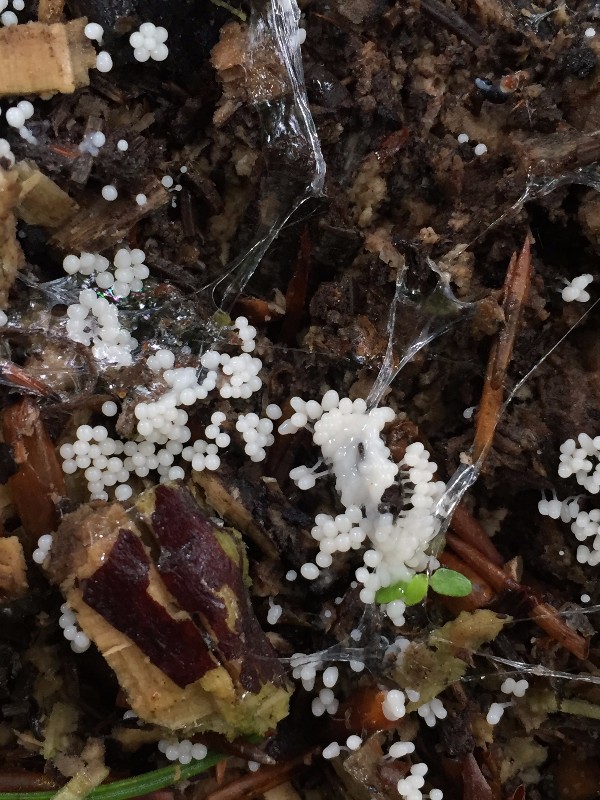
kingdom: Protozoa
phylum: Mycetozoa
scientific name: Mycetozoa
